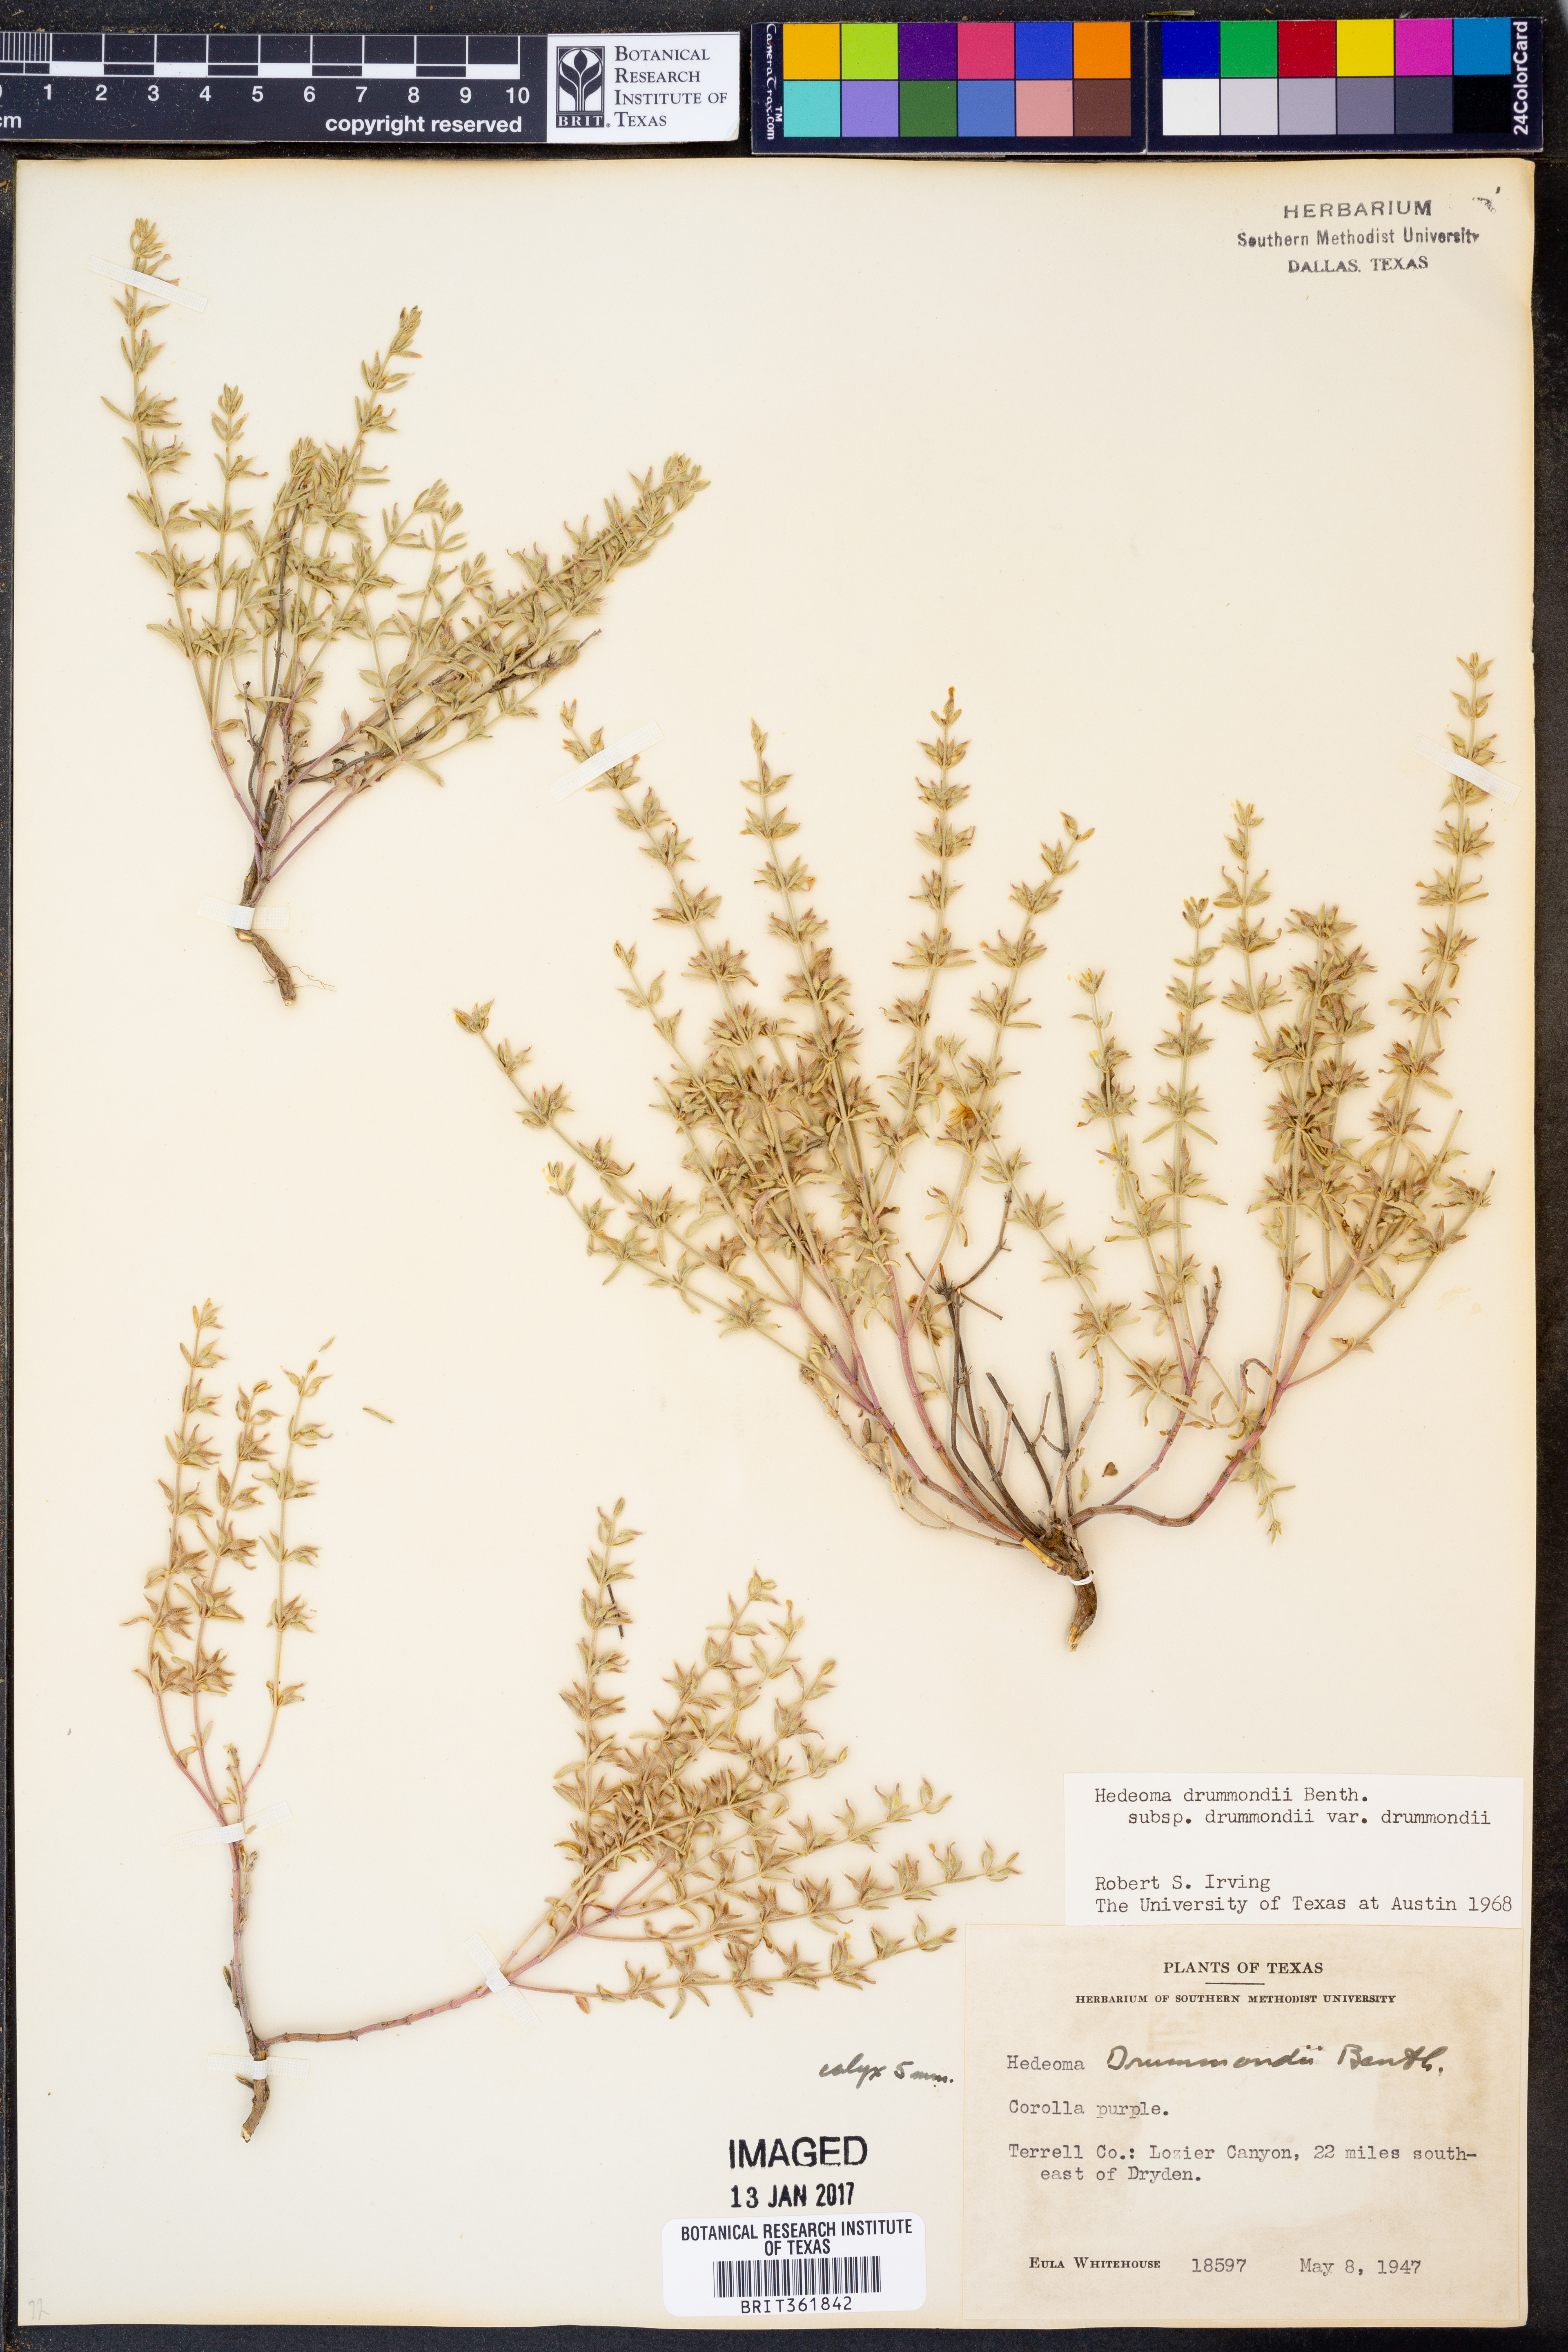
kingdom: Plantae
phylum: Tracheophyta
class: Magnoliopsida
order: Lamiales
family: Lamiaceae
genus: Hedeoma
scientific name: Hedeoma drummondii
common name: New mexico pennyroyal
